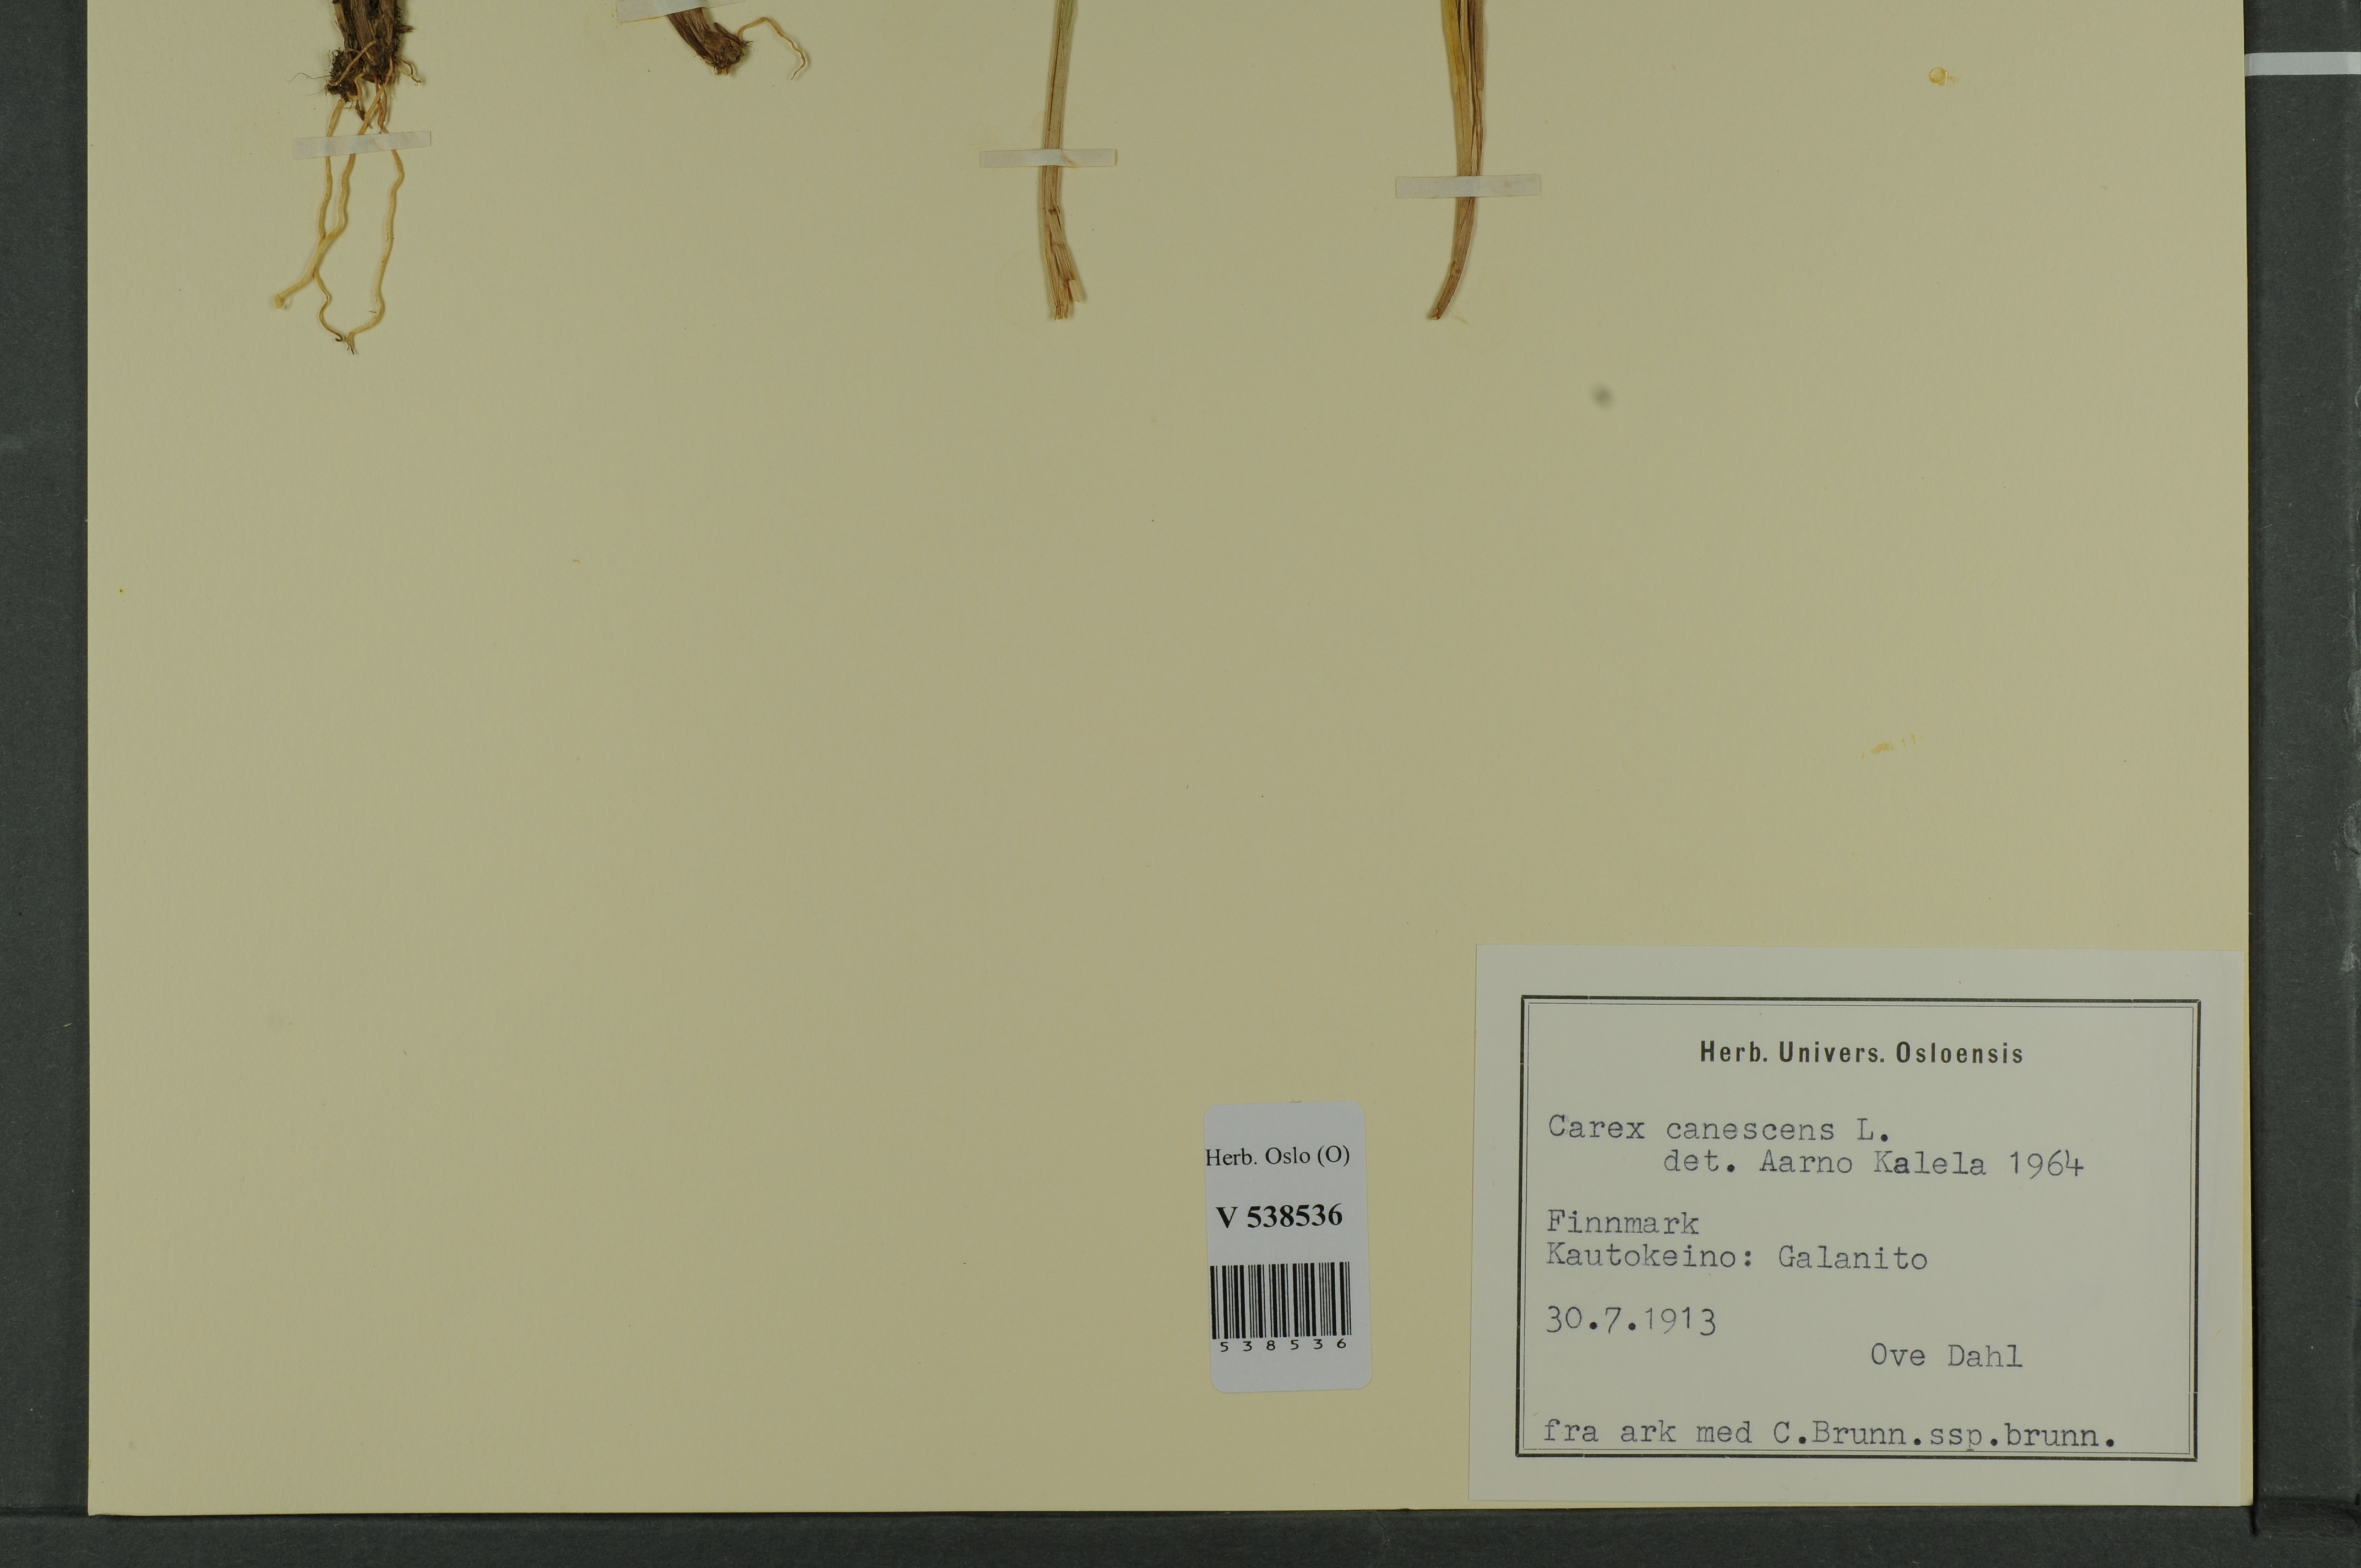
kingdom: Plantae
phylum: Tracheophyta
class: Liliopsida
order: Poales
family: Cyperaceae
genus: Carex
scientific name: Carex canescens
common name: White sedge
